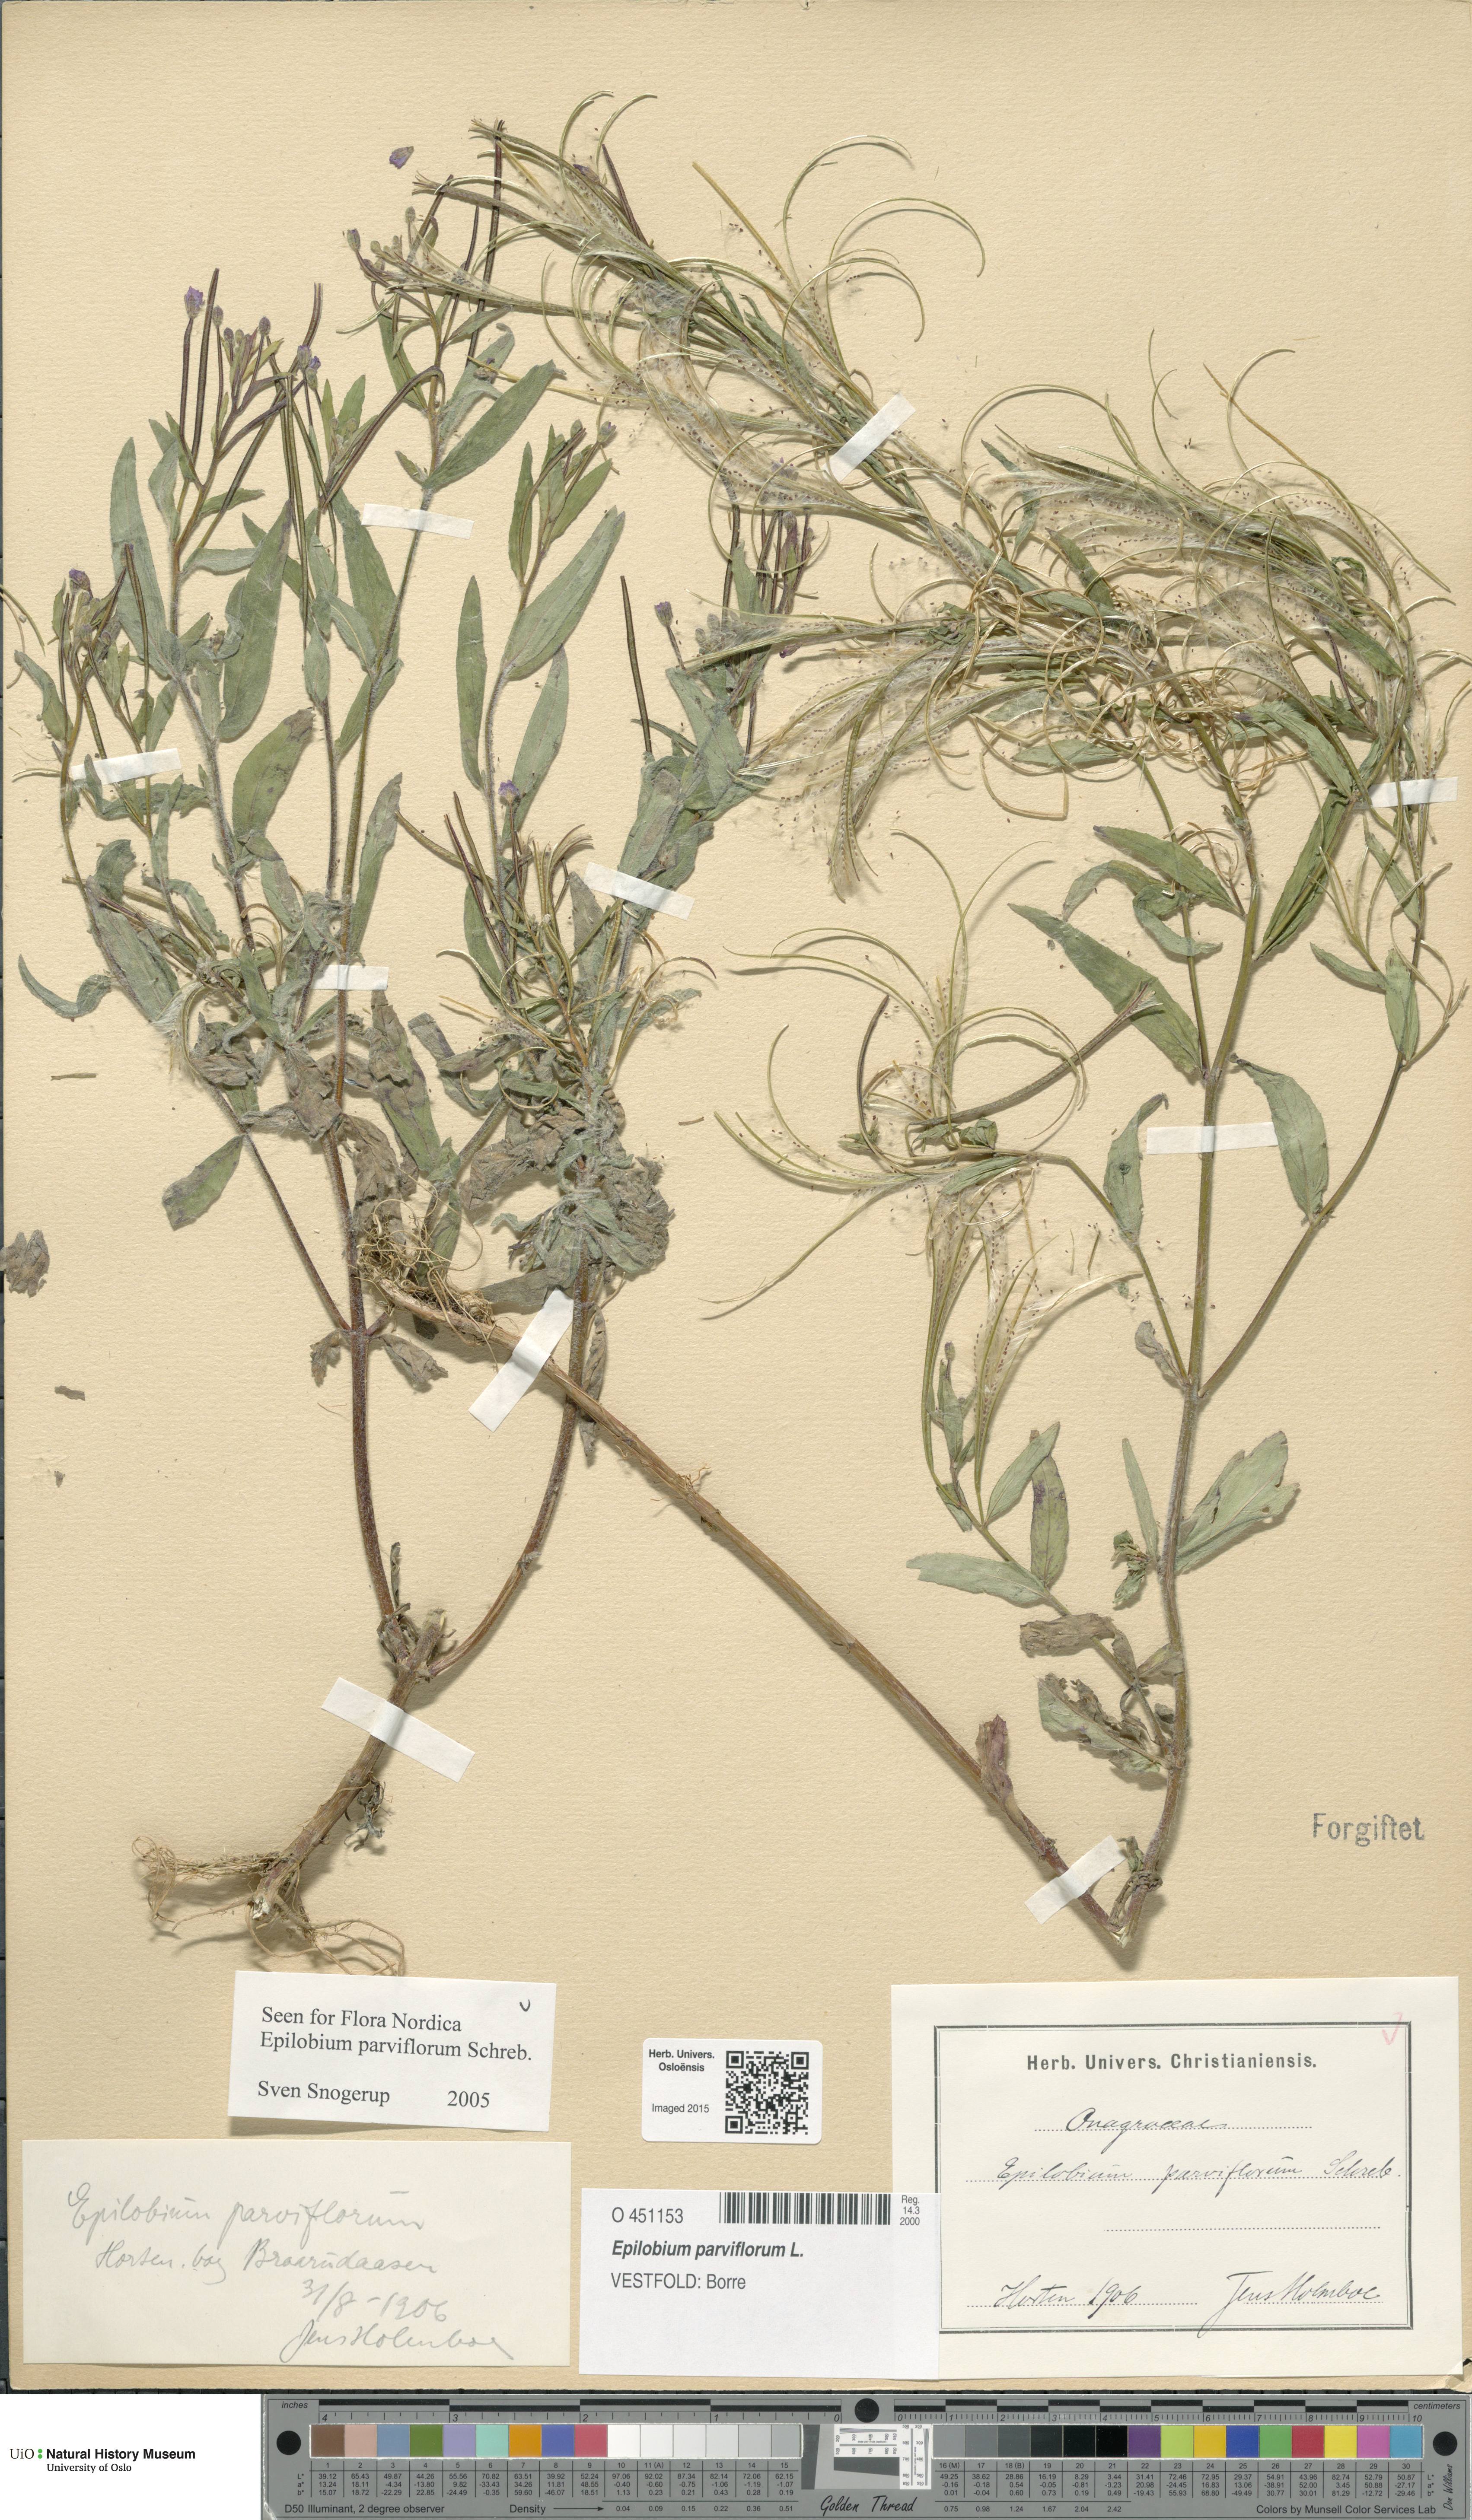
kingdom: Plantae
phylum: Tracheophyta
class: Magnoliopsida
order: Myrtales
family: Onagraceae
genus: Epilobium
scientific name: Epilobium parviflorum
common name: Hoary willowherb
